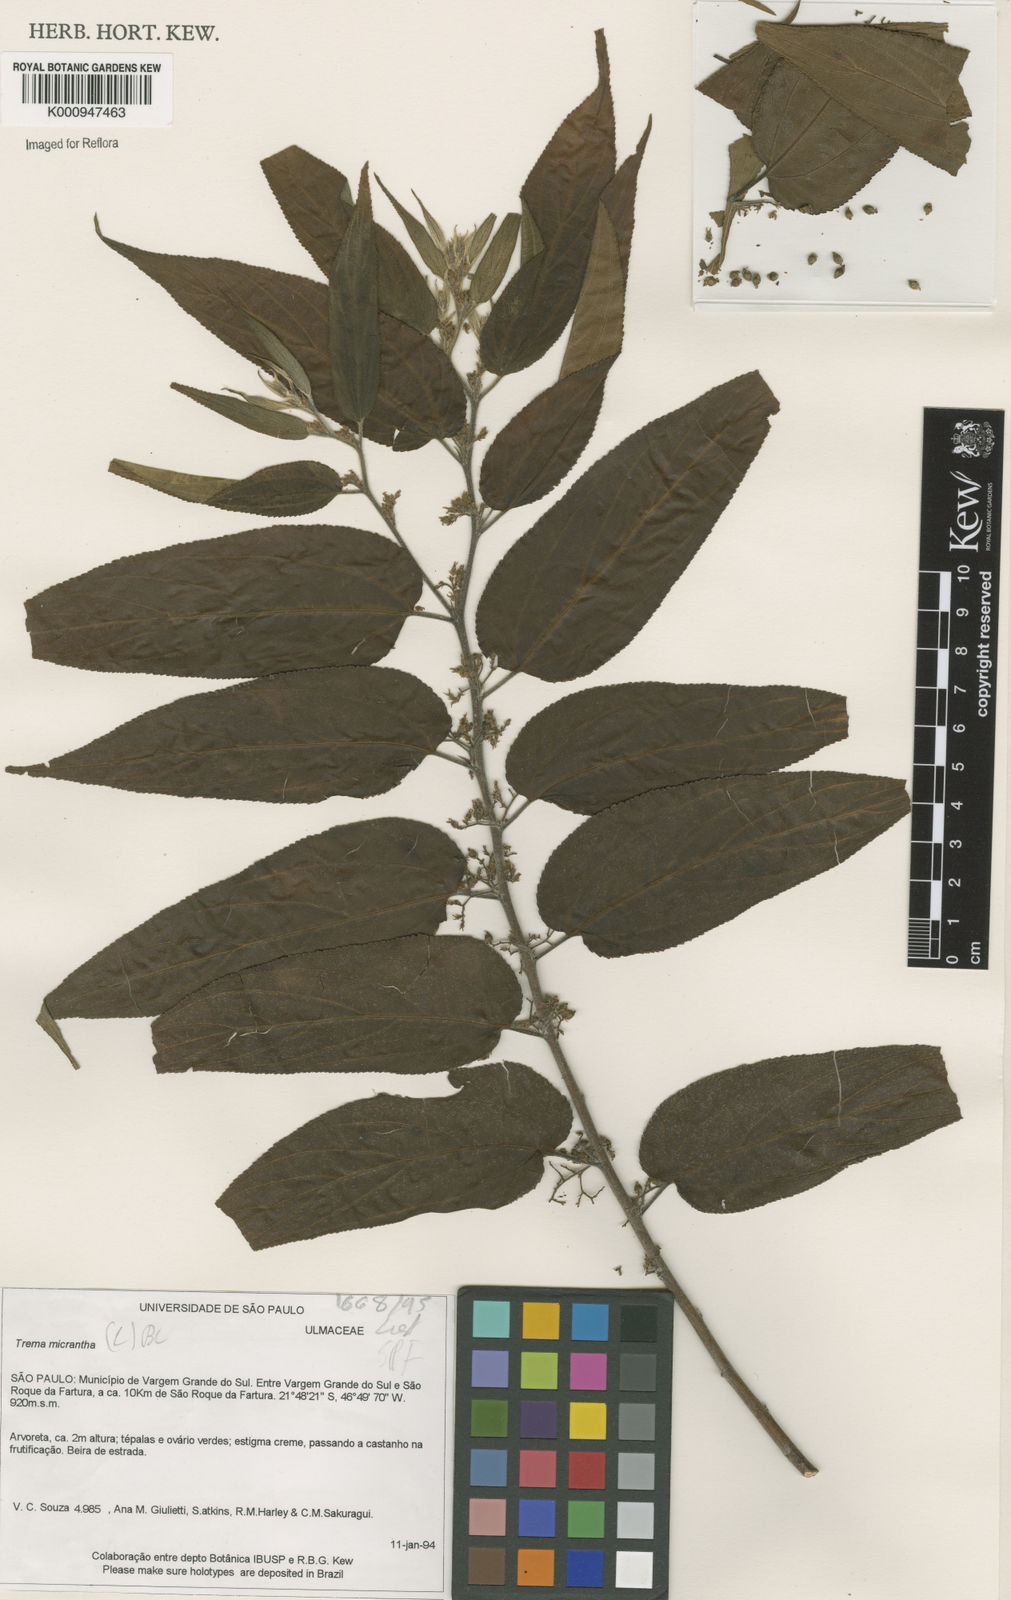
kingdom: Plantae
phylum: Tracheophyta
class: Magnoliopsida
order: Rosales
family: Cannabaceae
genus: Trema
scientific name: Trema micranthum
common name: Jamaican nettletree
